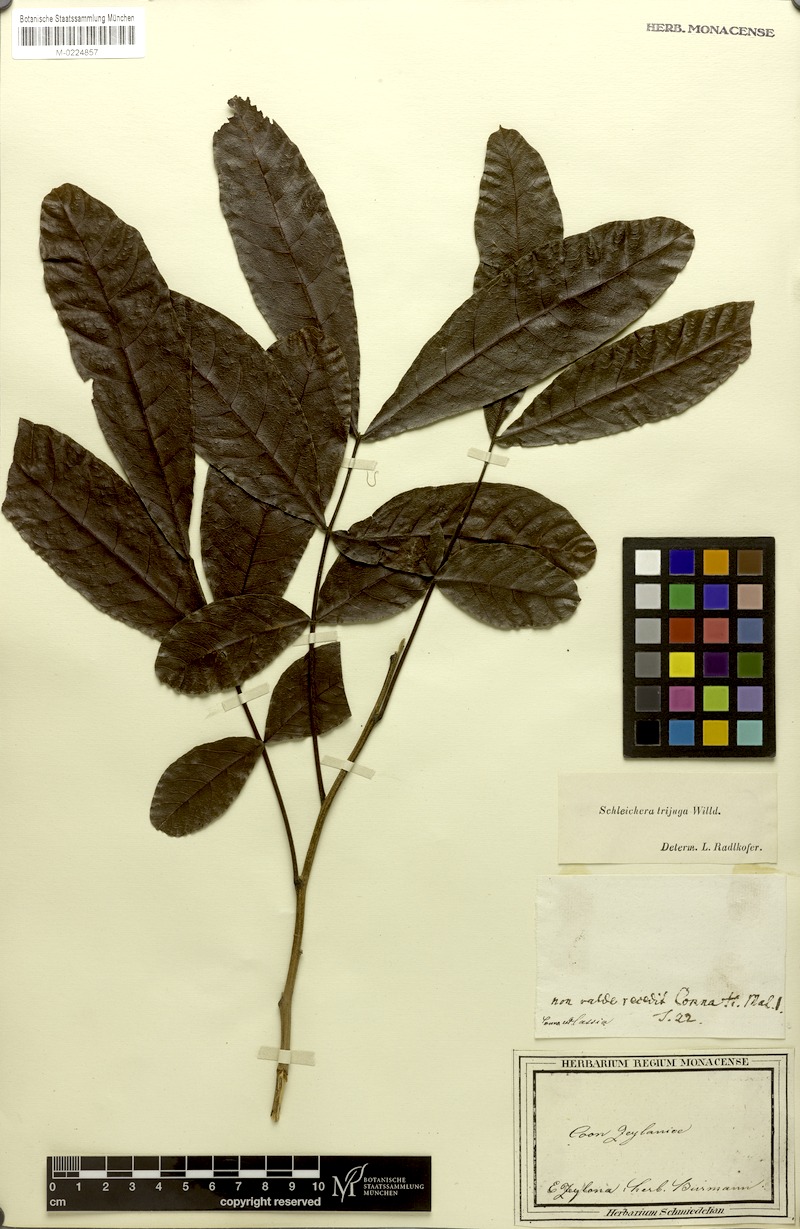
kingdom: Plantae
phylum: Tracheophyta
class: Magnoliopsida
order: Sapindales
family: Sapindaceae
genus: Schleichera
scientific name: Schleichera oleosa
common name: Malay lactree
